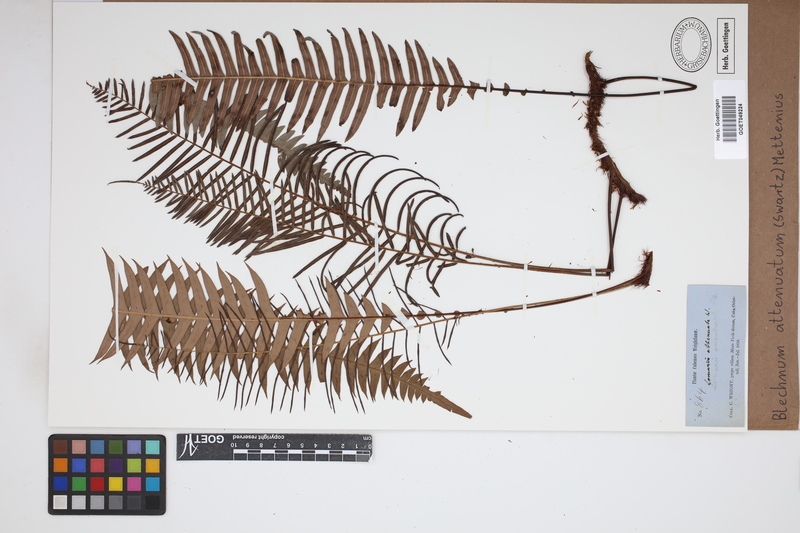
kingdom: Plantae
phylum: Tracheophyta
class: Polypodiopsida
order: Polypodiales
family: Blechnaceae
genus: Lomaridium
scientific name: Lomaridium attenuatum
